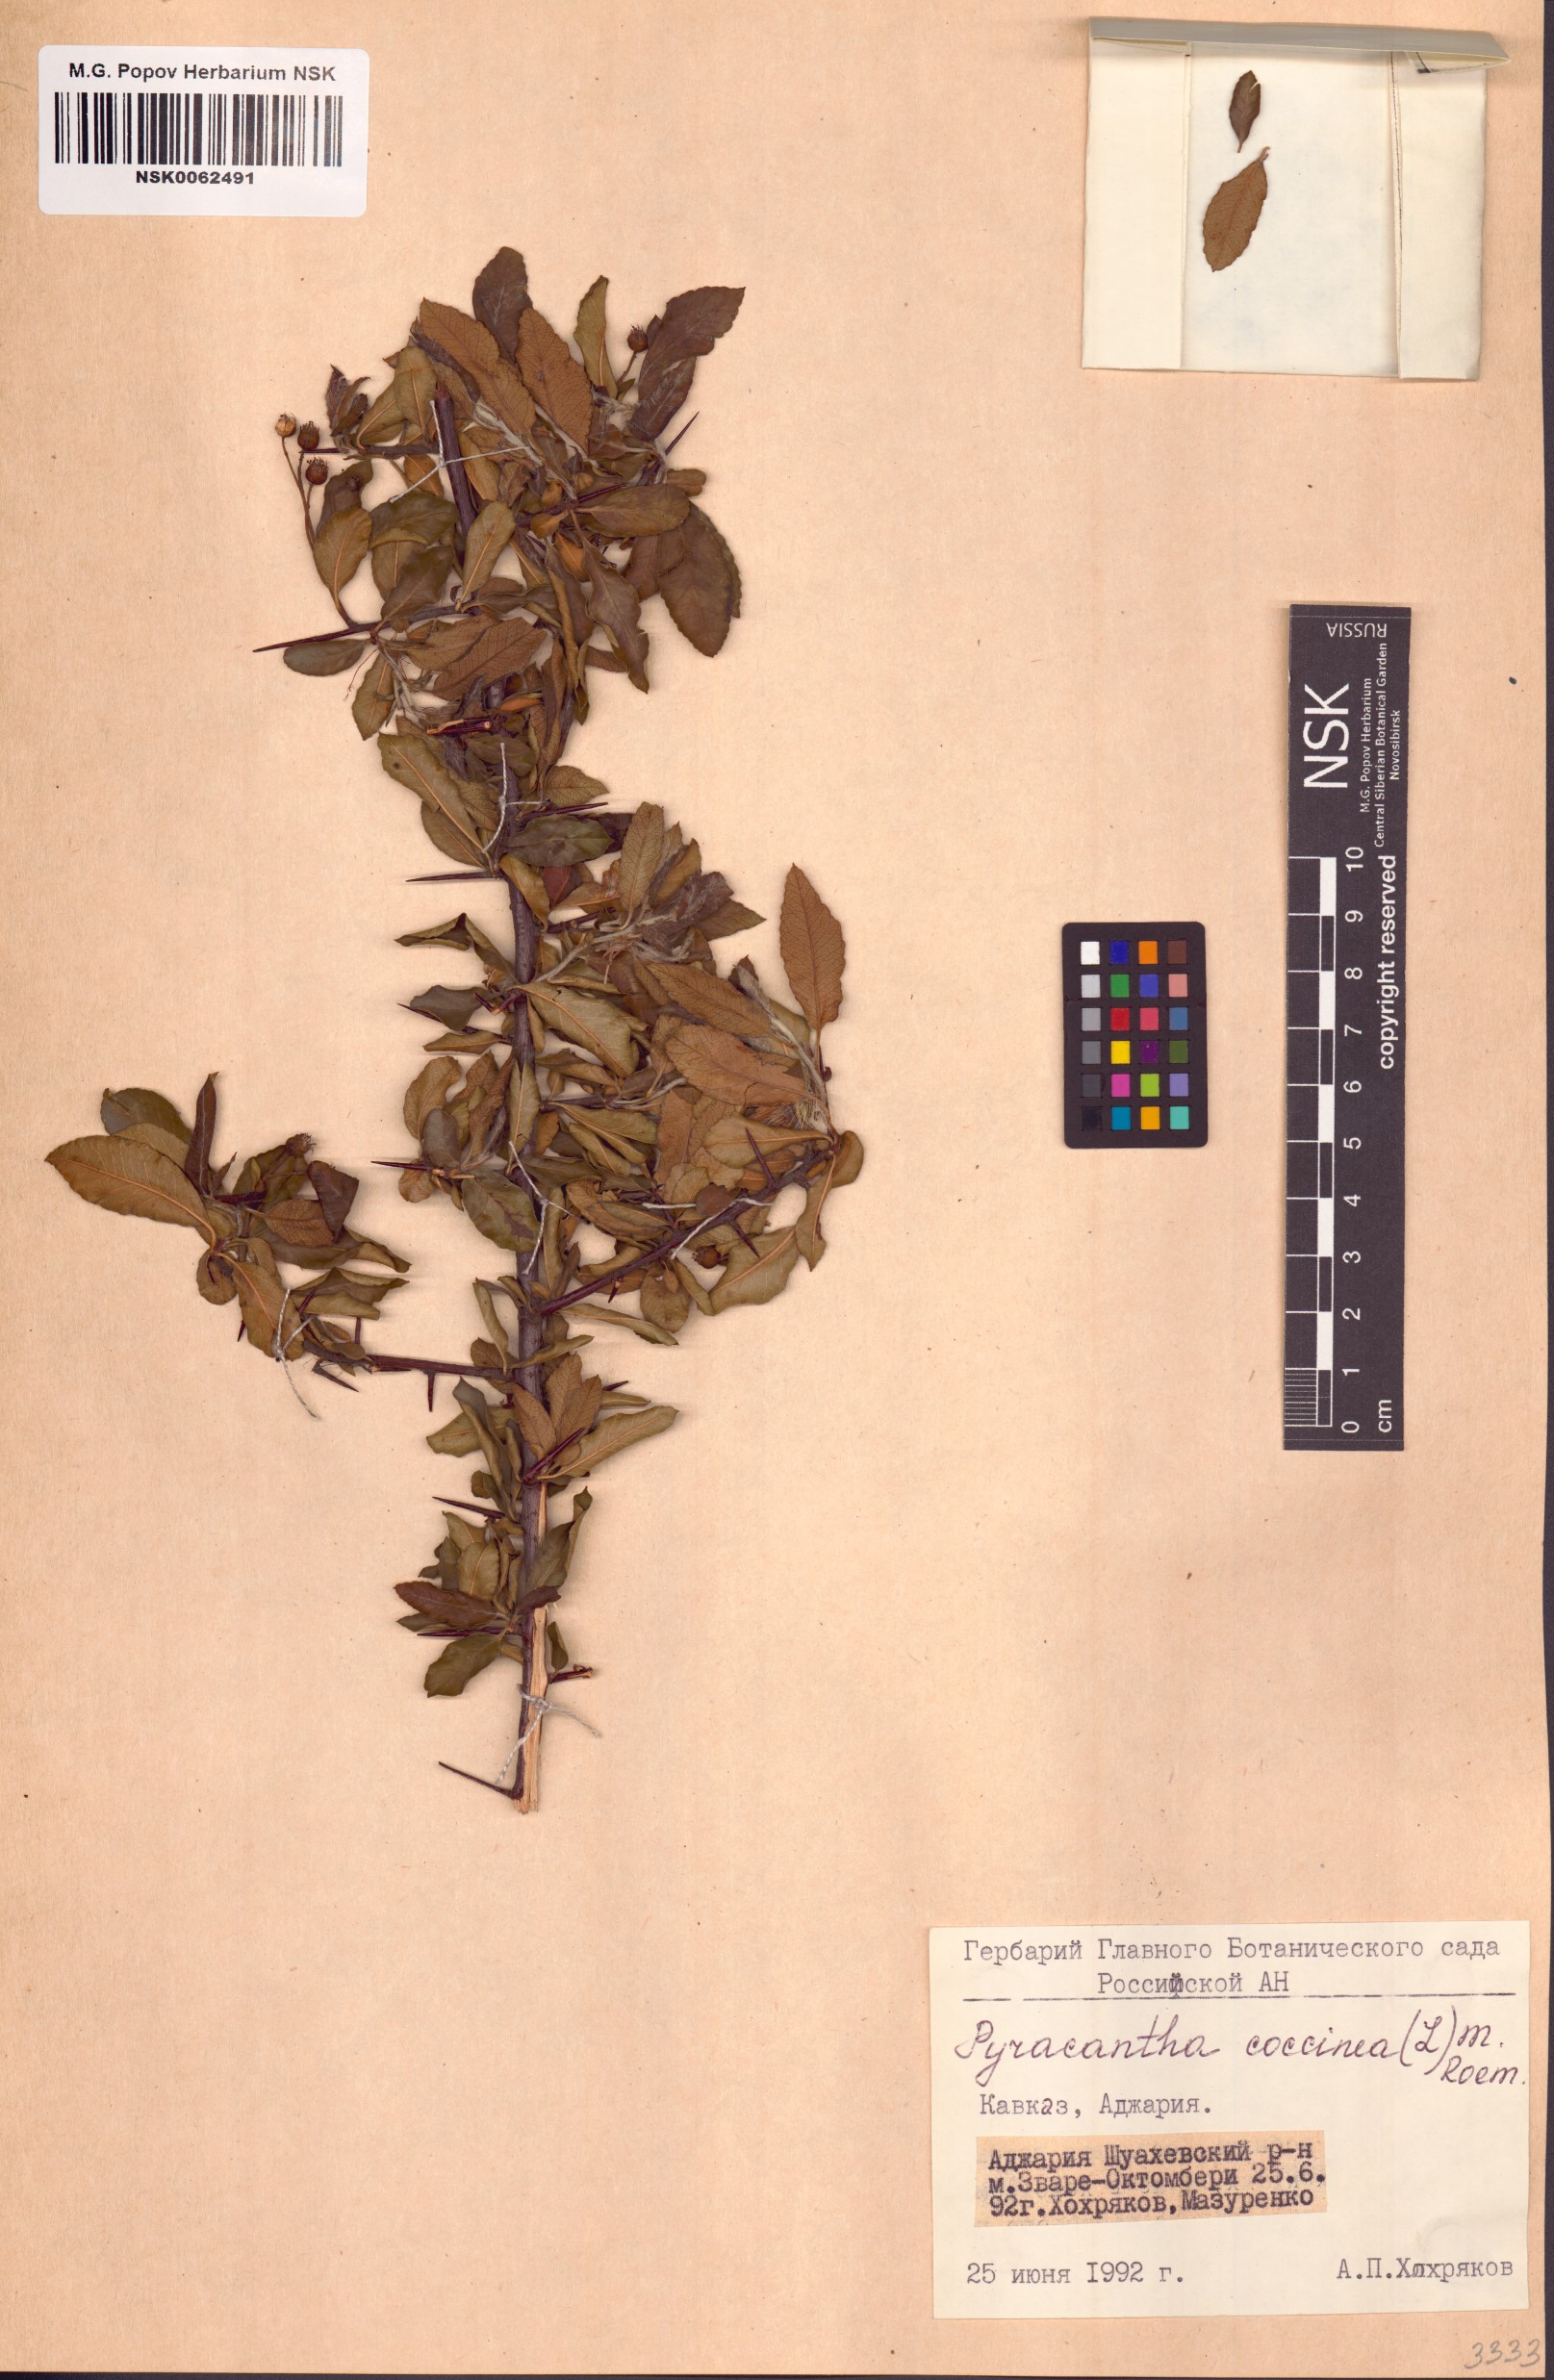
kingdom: Plantae
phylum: Tracheophyta
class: Magnoliopsida
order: Rosales
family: Rosaceae
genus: Pyracantha
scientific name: Pyracantha coccinea
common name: Firethorn
